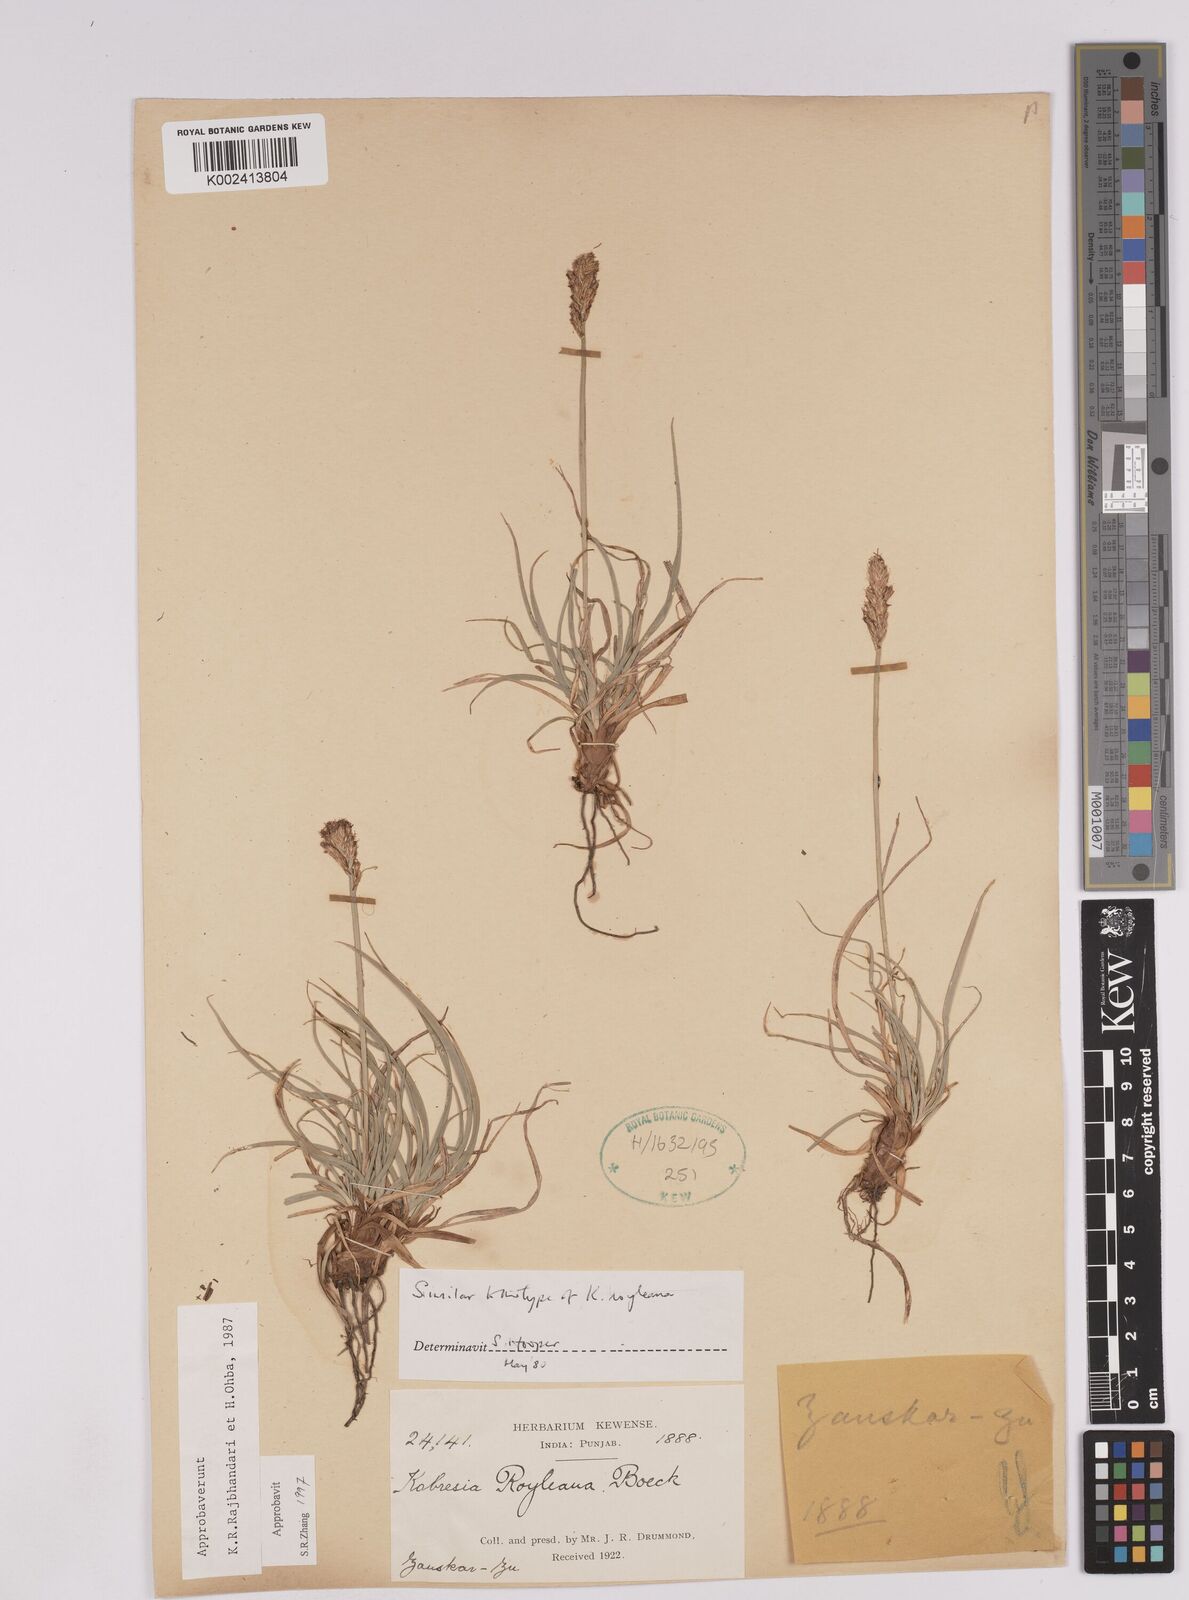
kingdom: Plantae
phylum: Tracheophyta
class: Liliopsida
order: Poales
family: Cyperaceae
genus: Carex
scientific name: Carex kokanica
